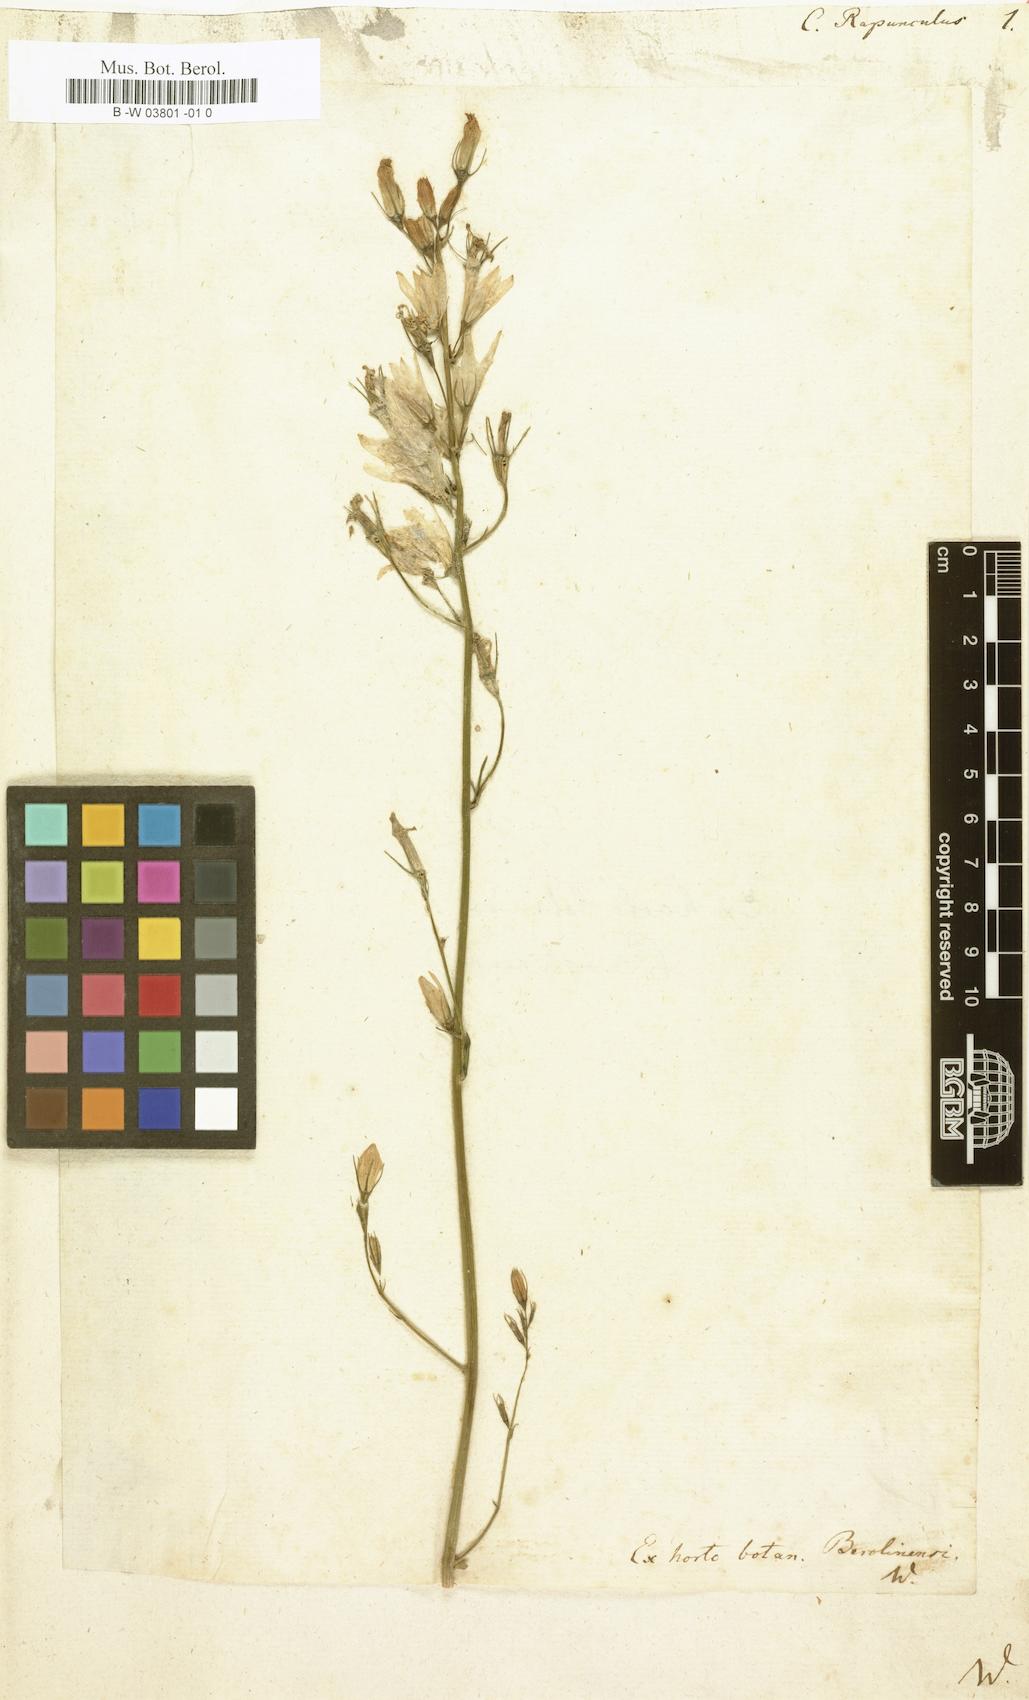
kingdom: Plantae
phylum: Tracheophyta
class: Magnoliopsida
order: Asterales
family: Campanulaceae
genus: Campanula
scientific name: Campanula rapunculus
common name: Rampion bellflower
